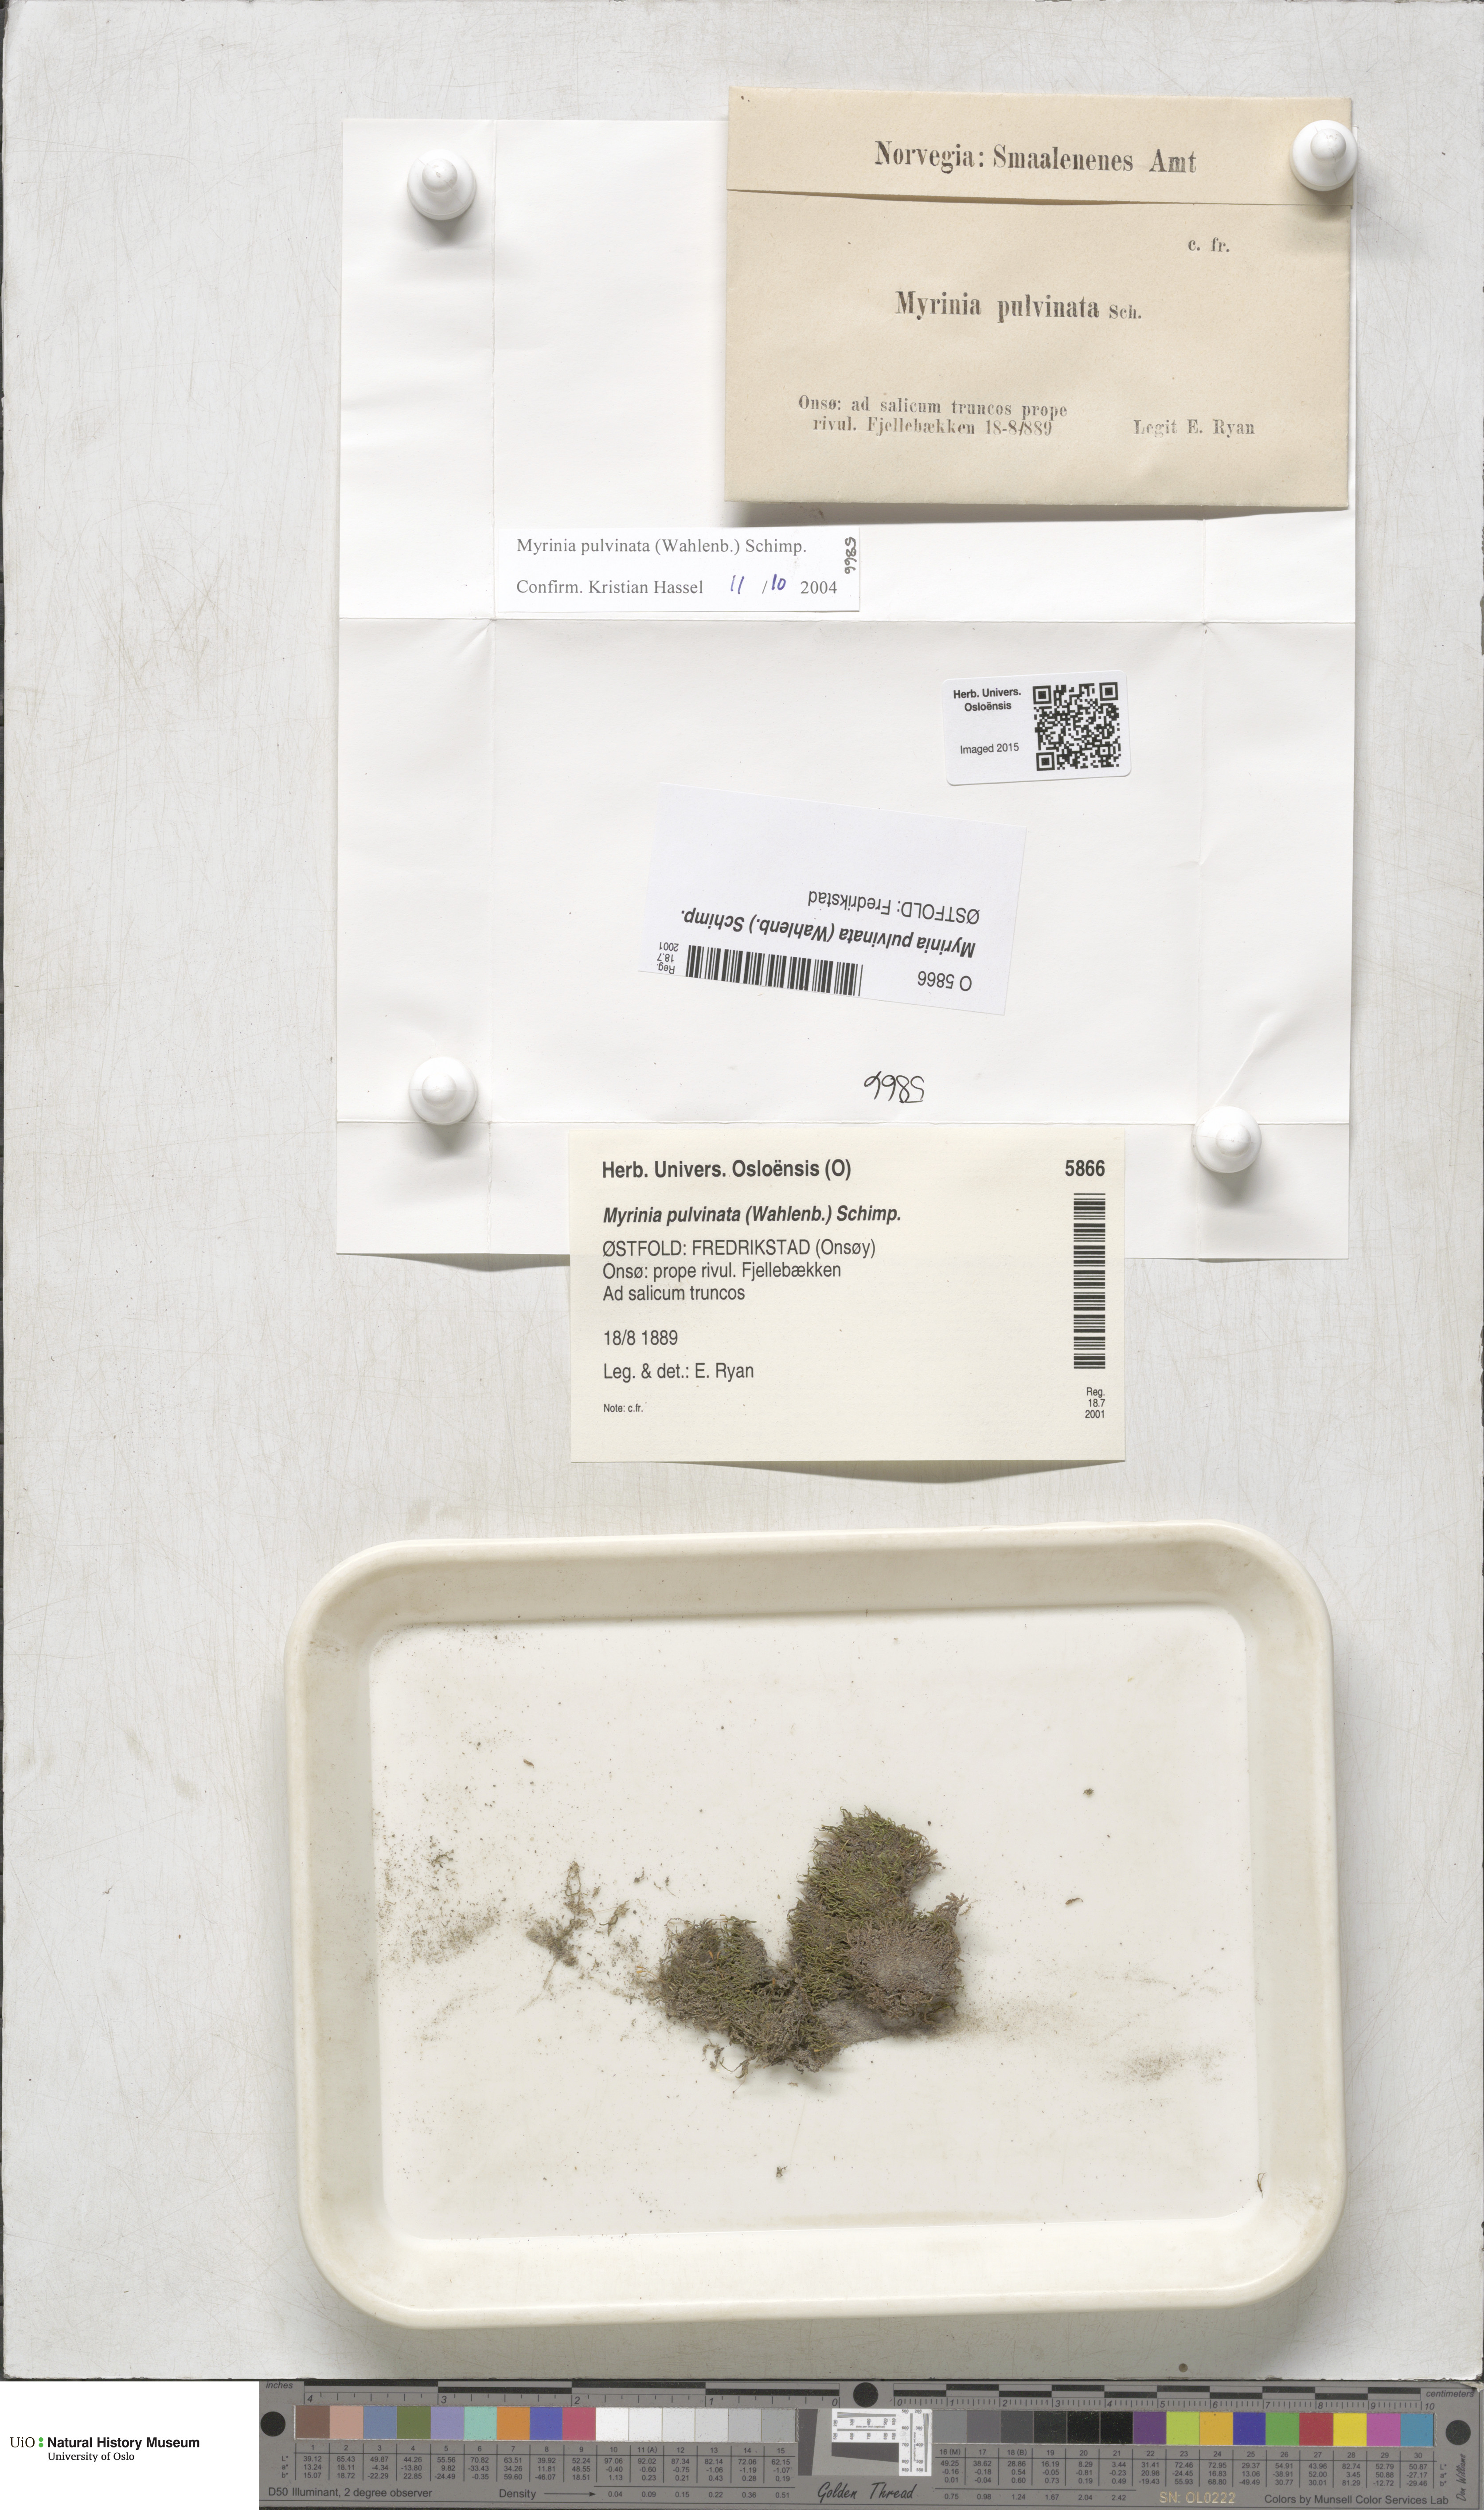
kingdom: Plantae
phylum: Bryophyta
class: Bryopsida
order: Hypnales
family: Myriniaceae
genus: Myrinia
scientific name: Myrinia pulvinata
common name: Flood-moss
